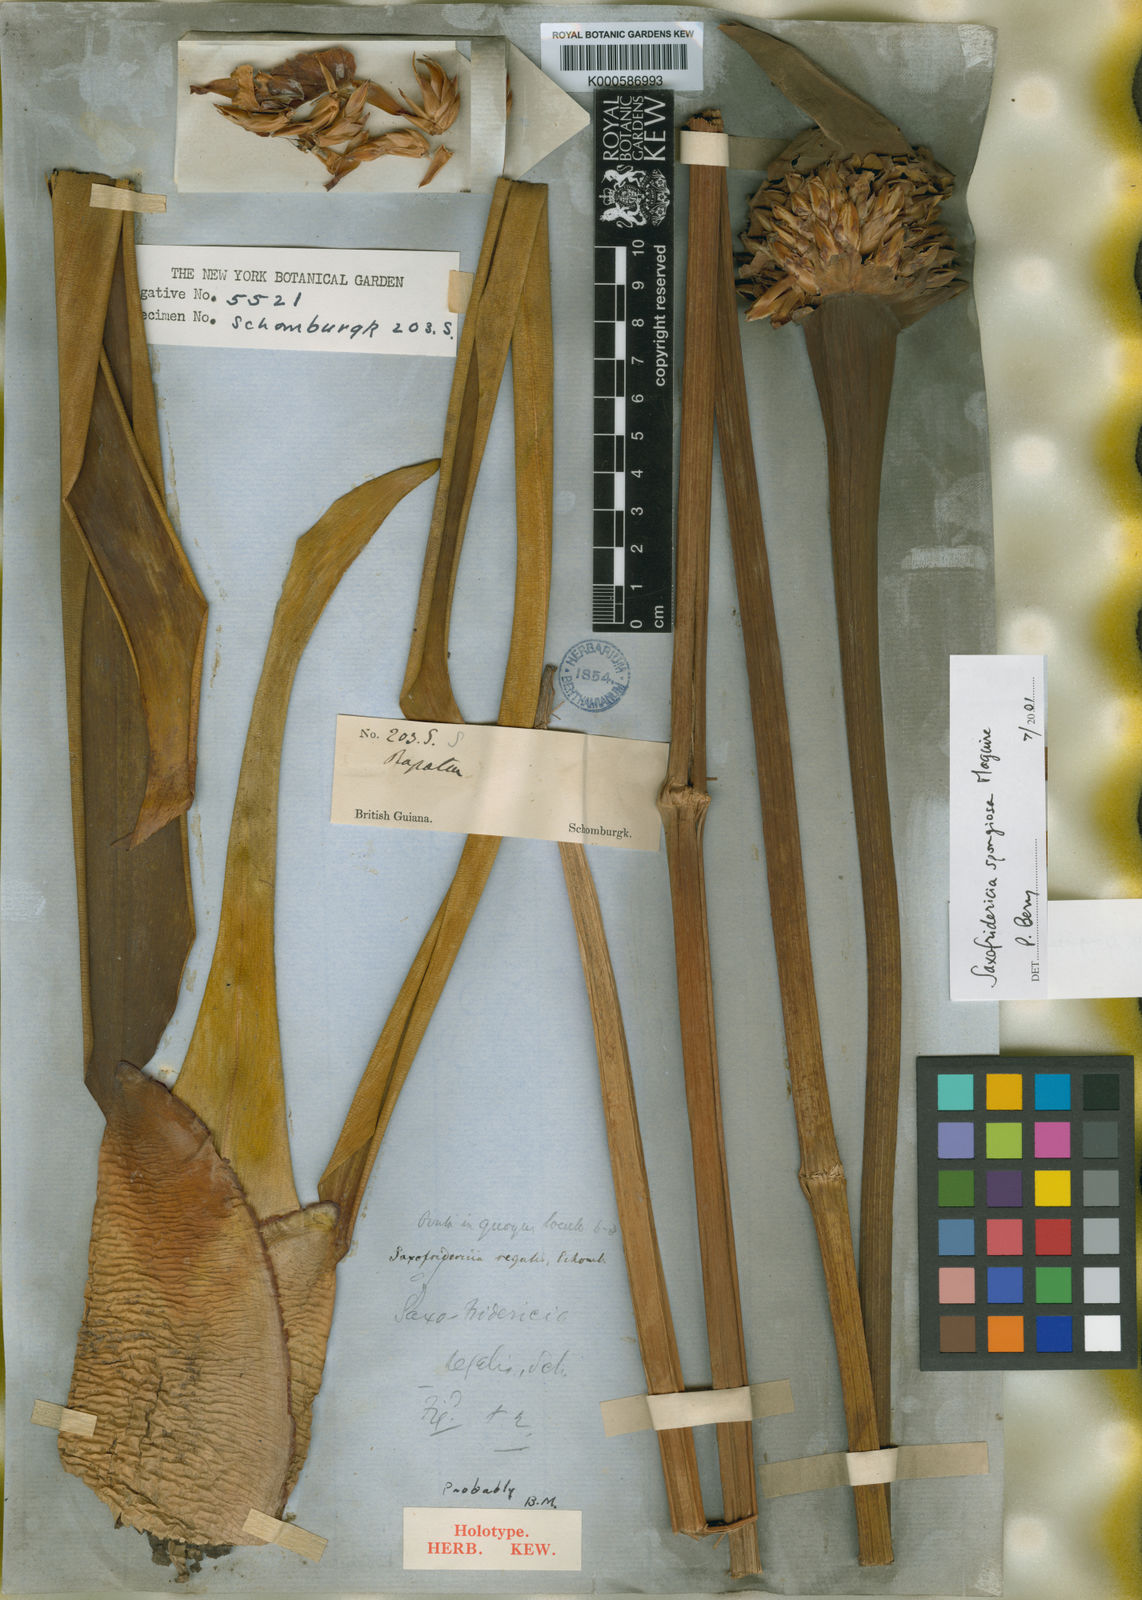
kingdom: Plantae
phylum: Tracheophyta
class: Liliopsida
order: Poales
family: Rapateaceae
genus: Saxofridericia
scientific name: Saxofridericia regalis
